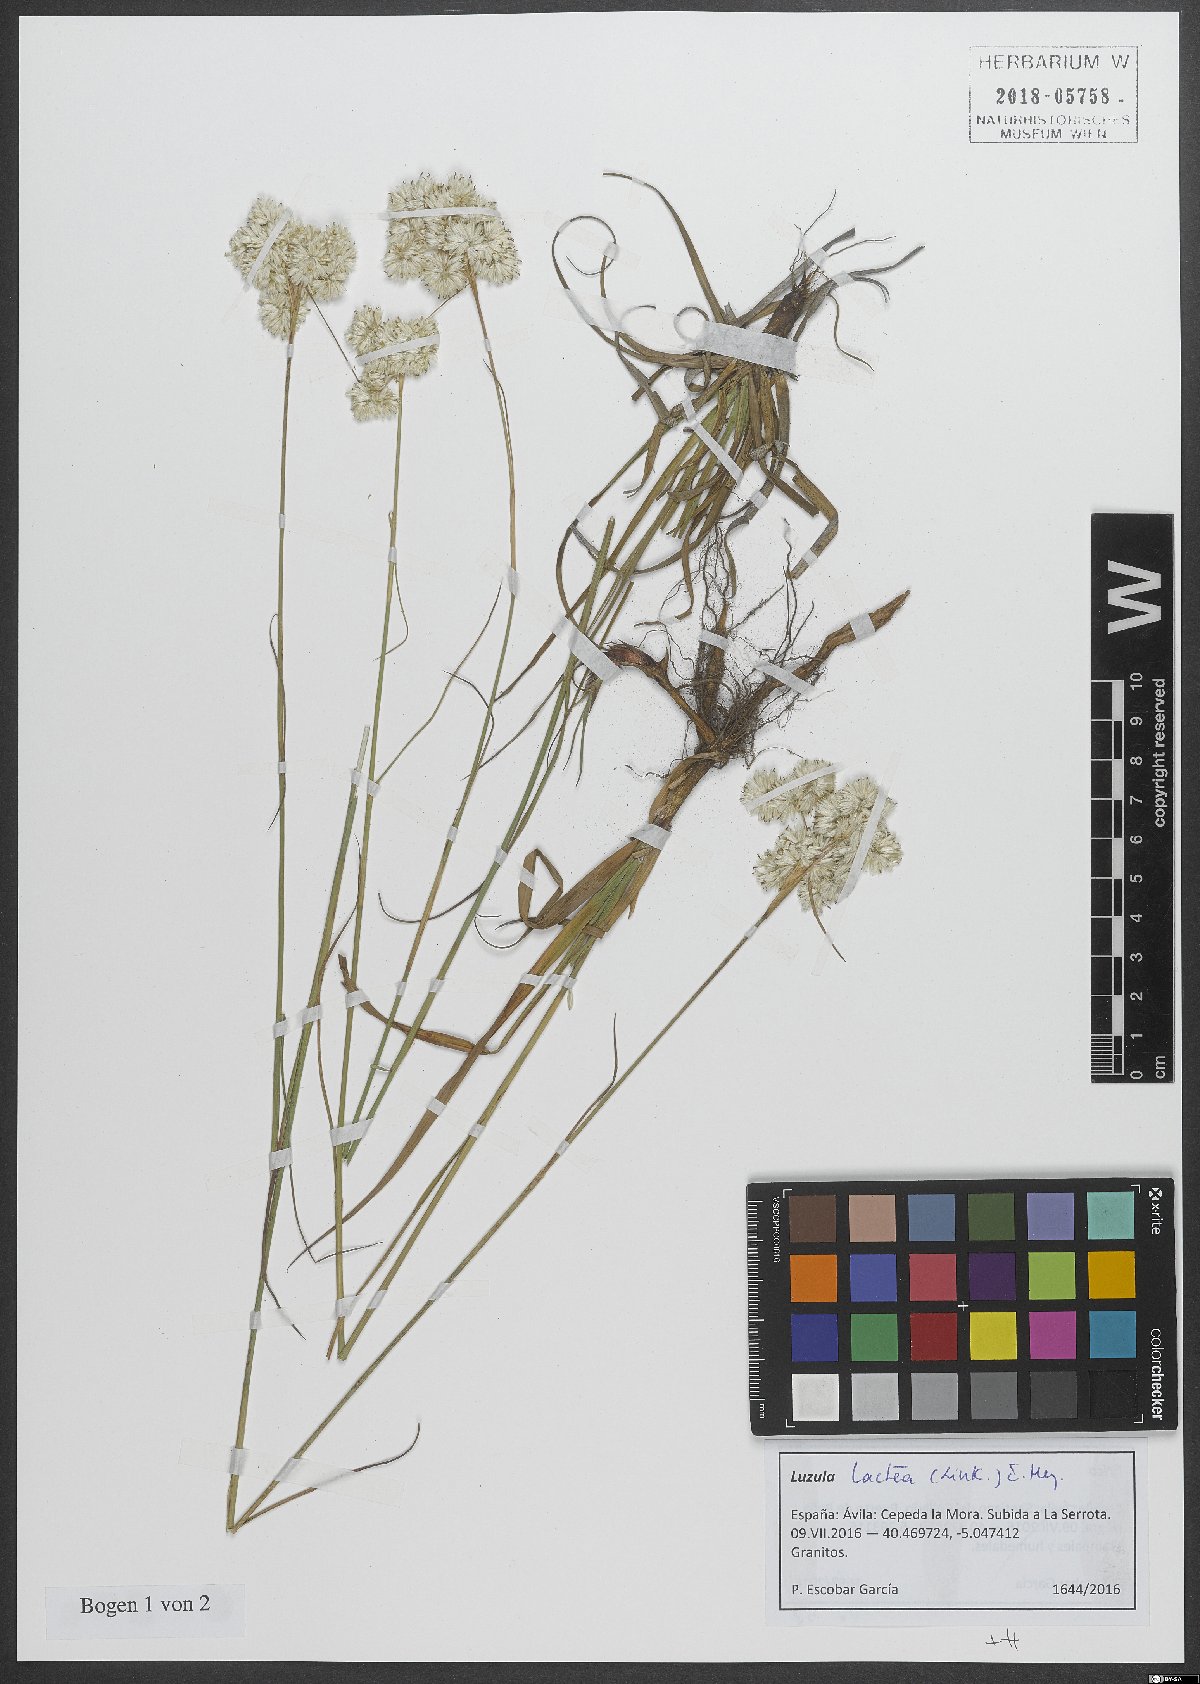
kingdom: Plantae
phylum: Tracheophyta
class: Liliopsida
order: Poales
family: Juncaceae
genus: Luzula
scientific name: Luzula lactea
